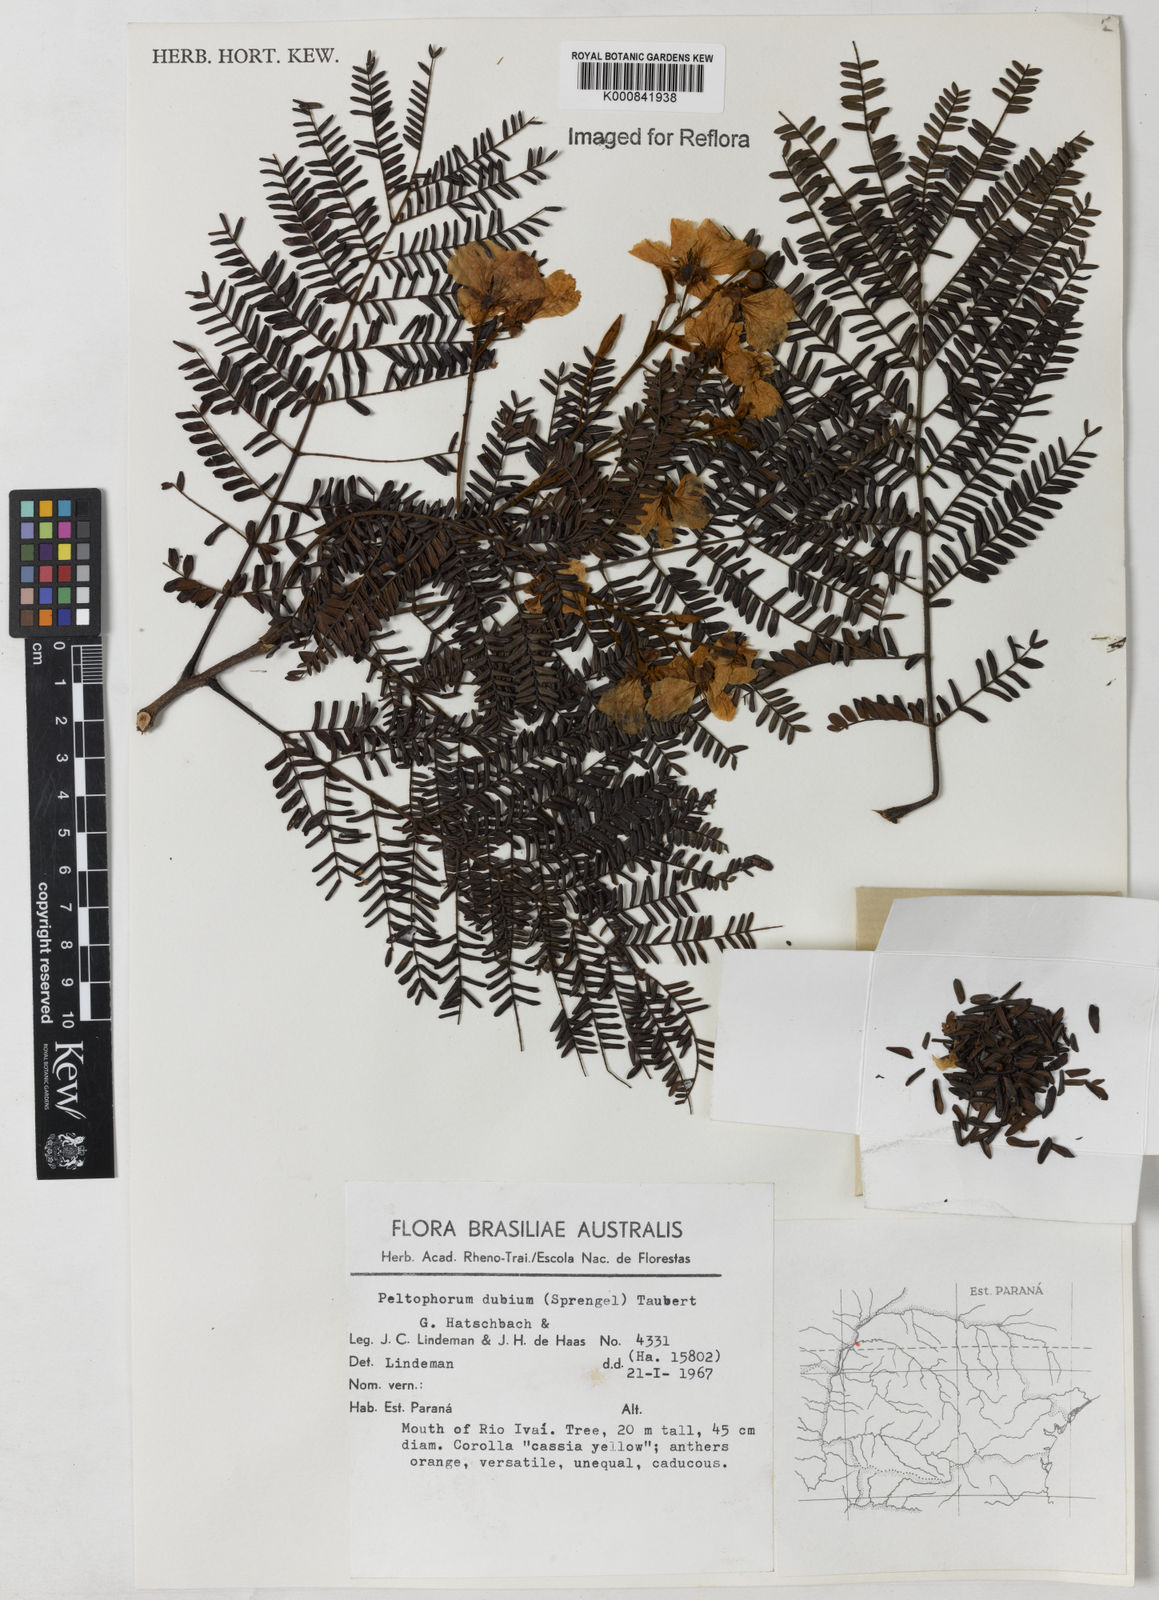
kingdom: Plantae
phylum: Tracheophyta
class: Magnoliopsida
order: Fabales
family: Fabaceae
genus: Peltophorum
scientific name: Peltophorum dubium
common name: Horsebush
